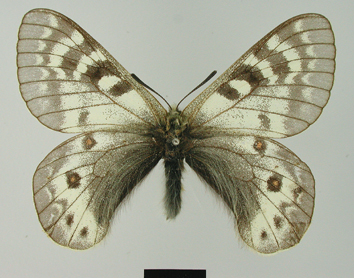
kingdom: Animalia
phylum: Arthropoda
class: Insecta
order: Lepidoptera
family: Papilionidae
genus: Parnassius
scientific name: Parnassius staudingeri
